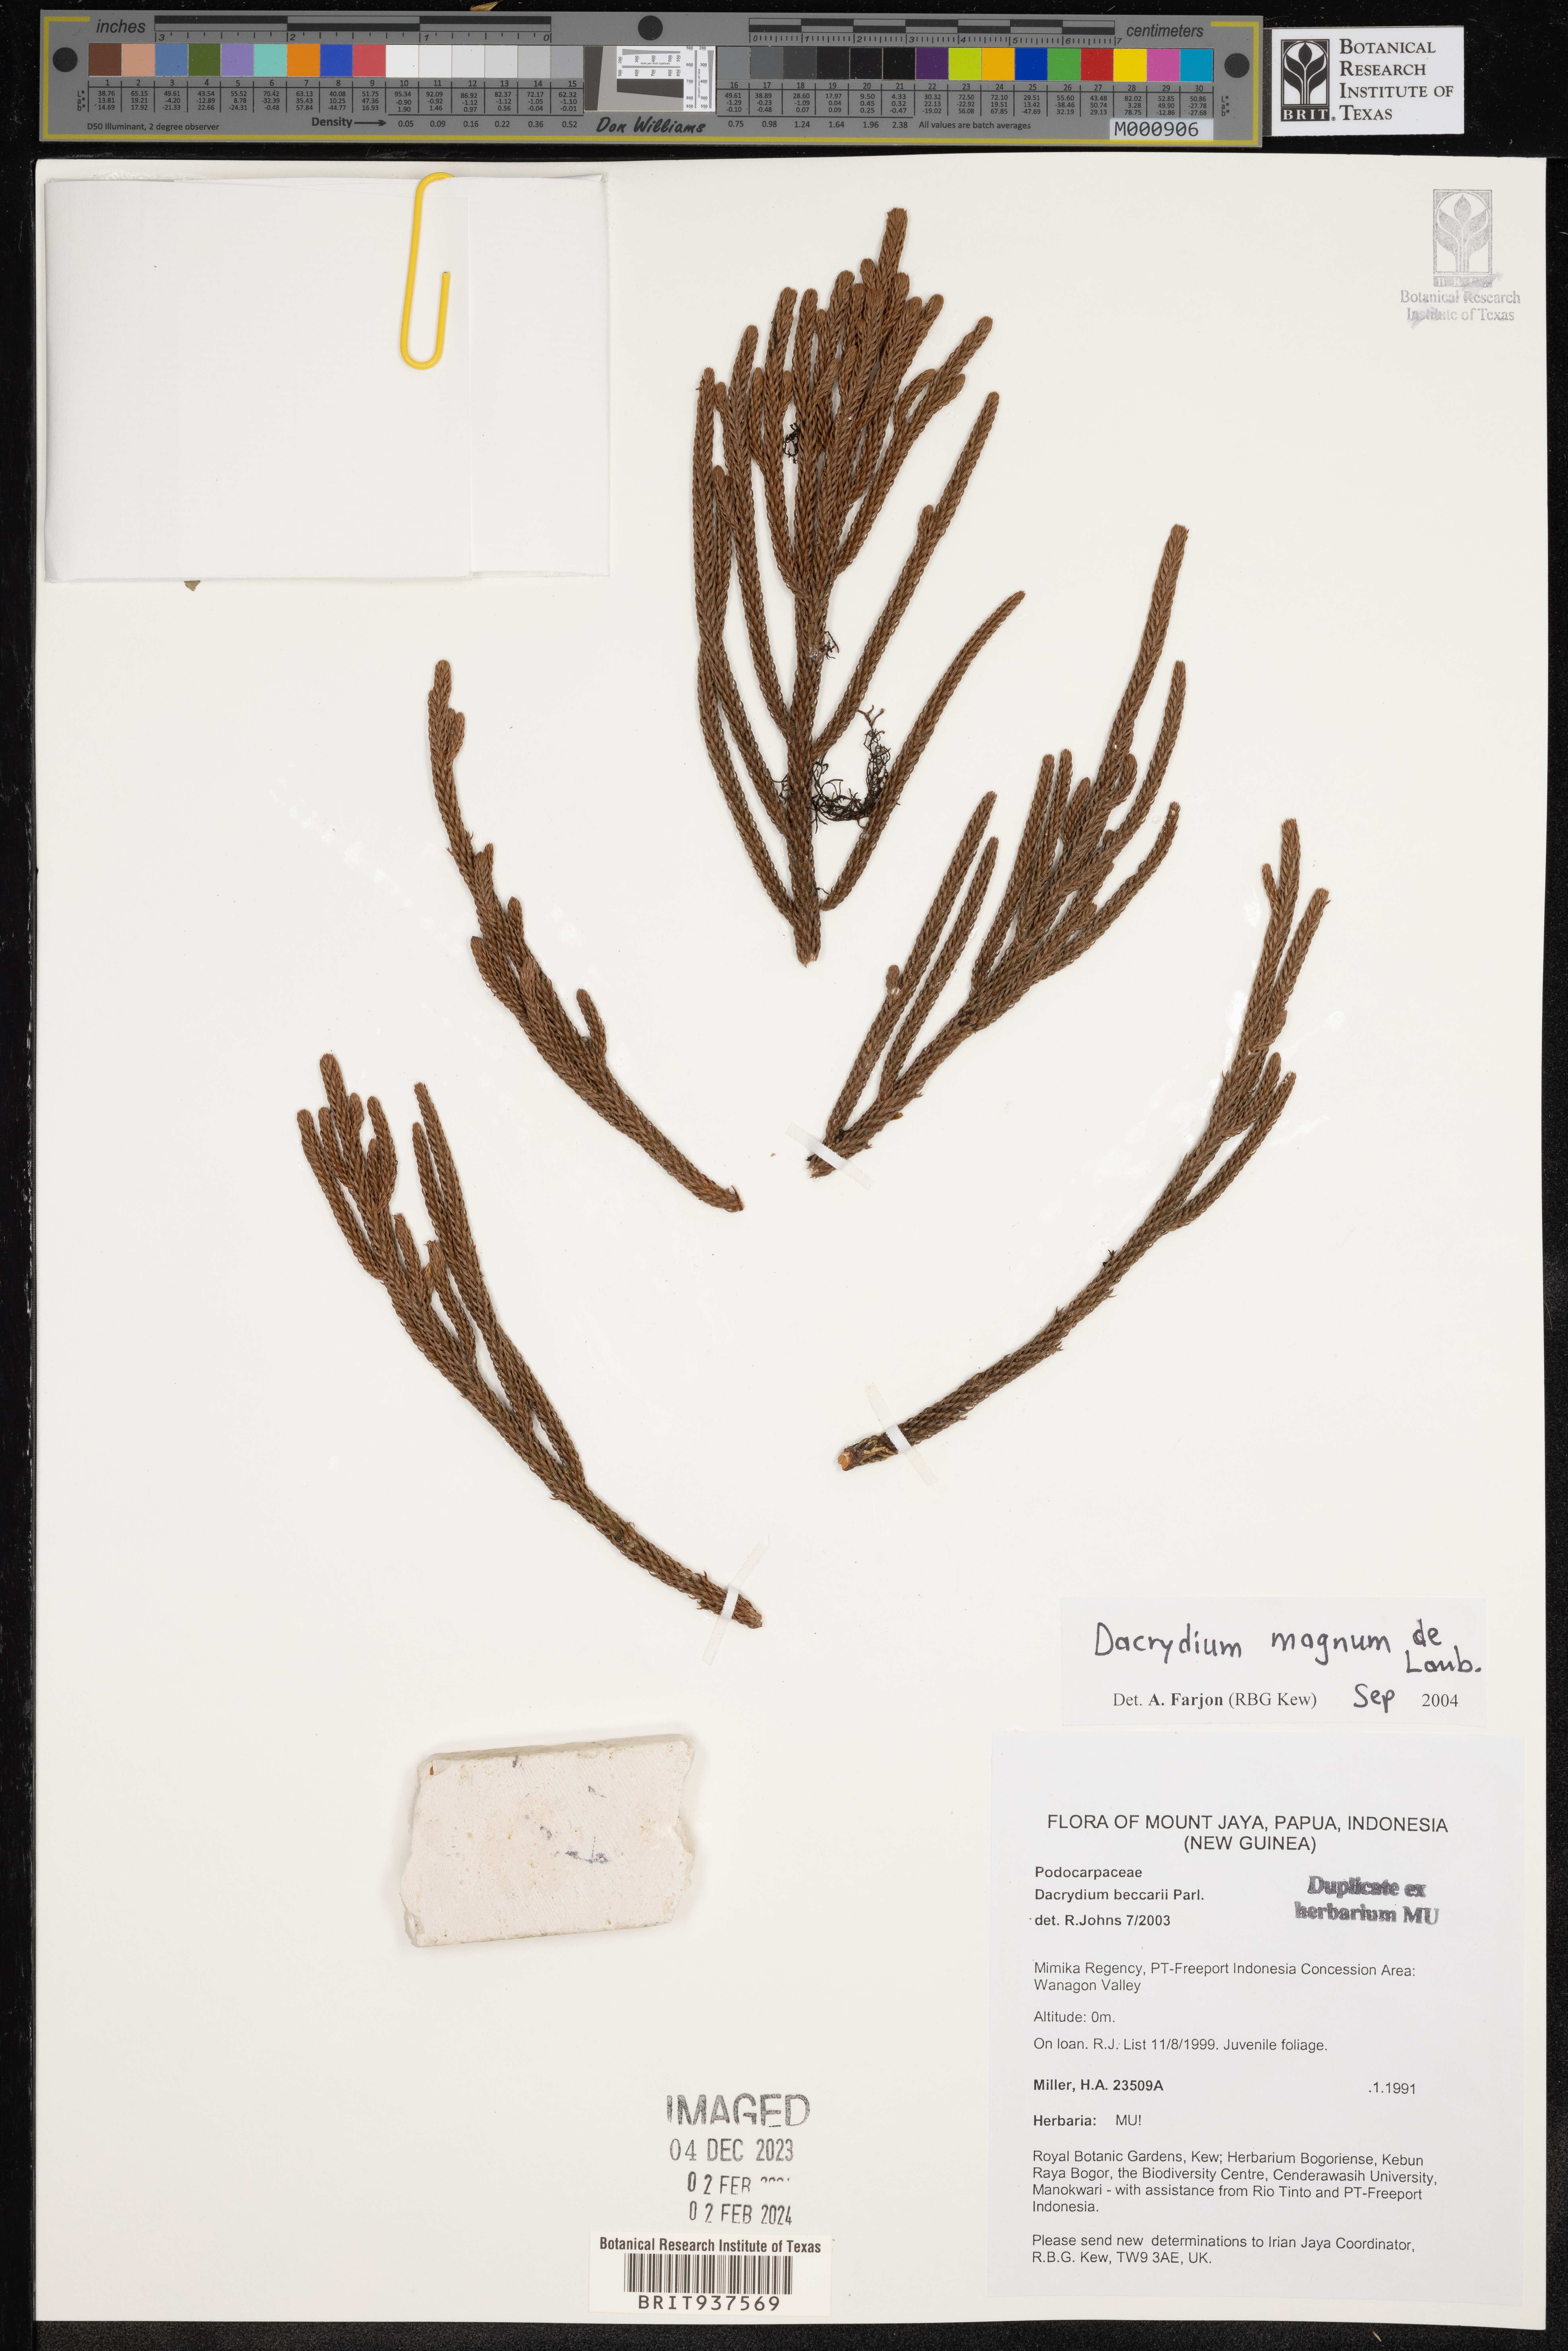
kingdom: Plantae
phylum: Tracheophyta
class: Pinopsida
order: Pinales
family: Podocarpaceae
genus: Dacrydium
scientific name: Dacrydium
